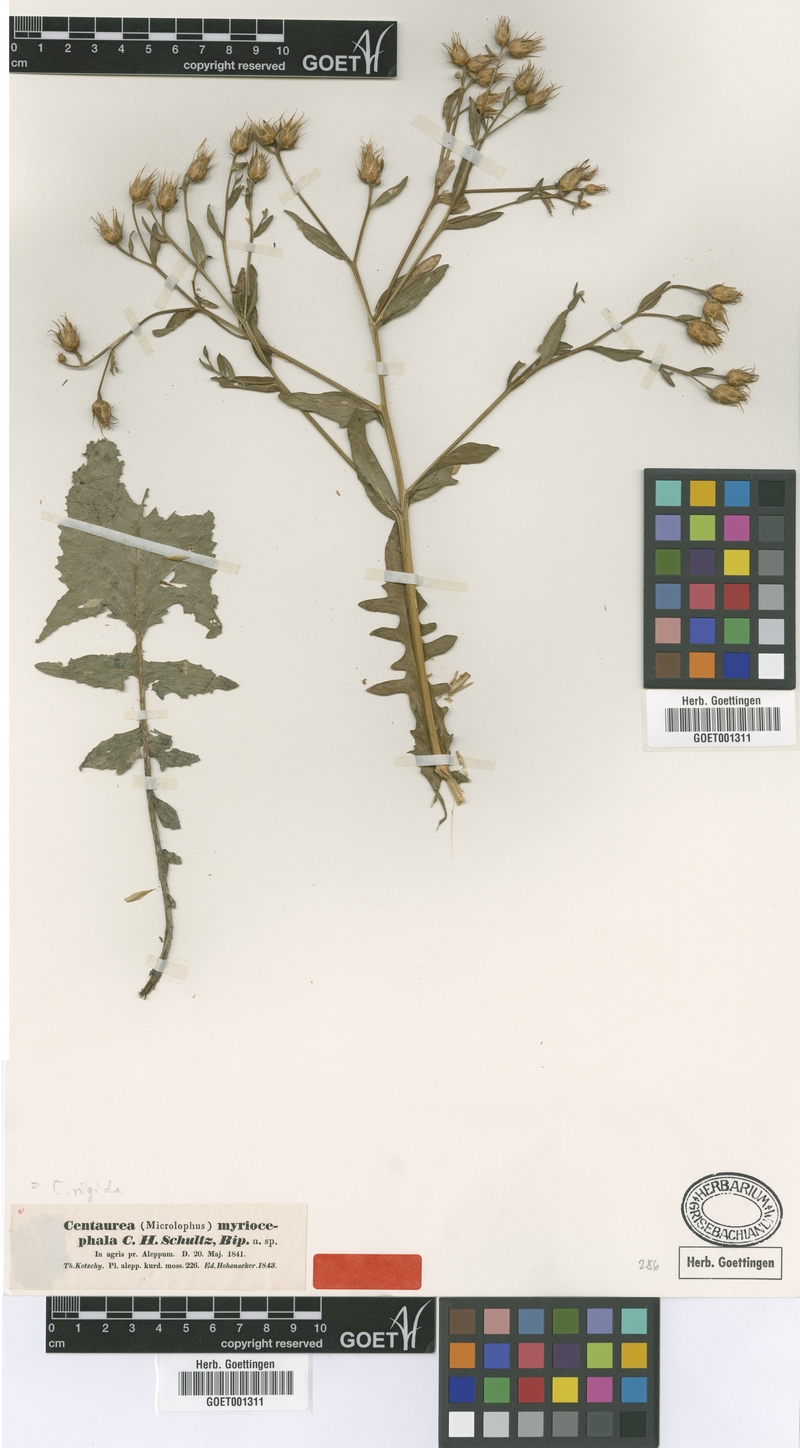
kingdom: Plantae
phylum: Tracheophyta
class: Magnoliopsida
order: Asterales
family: Asteraceae
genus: Centaurea
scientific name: Centaurea rigida
